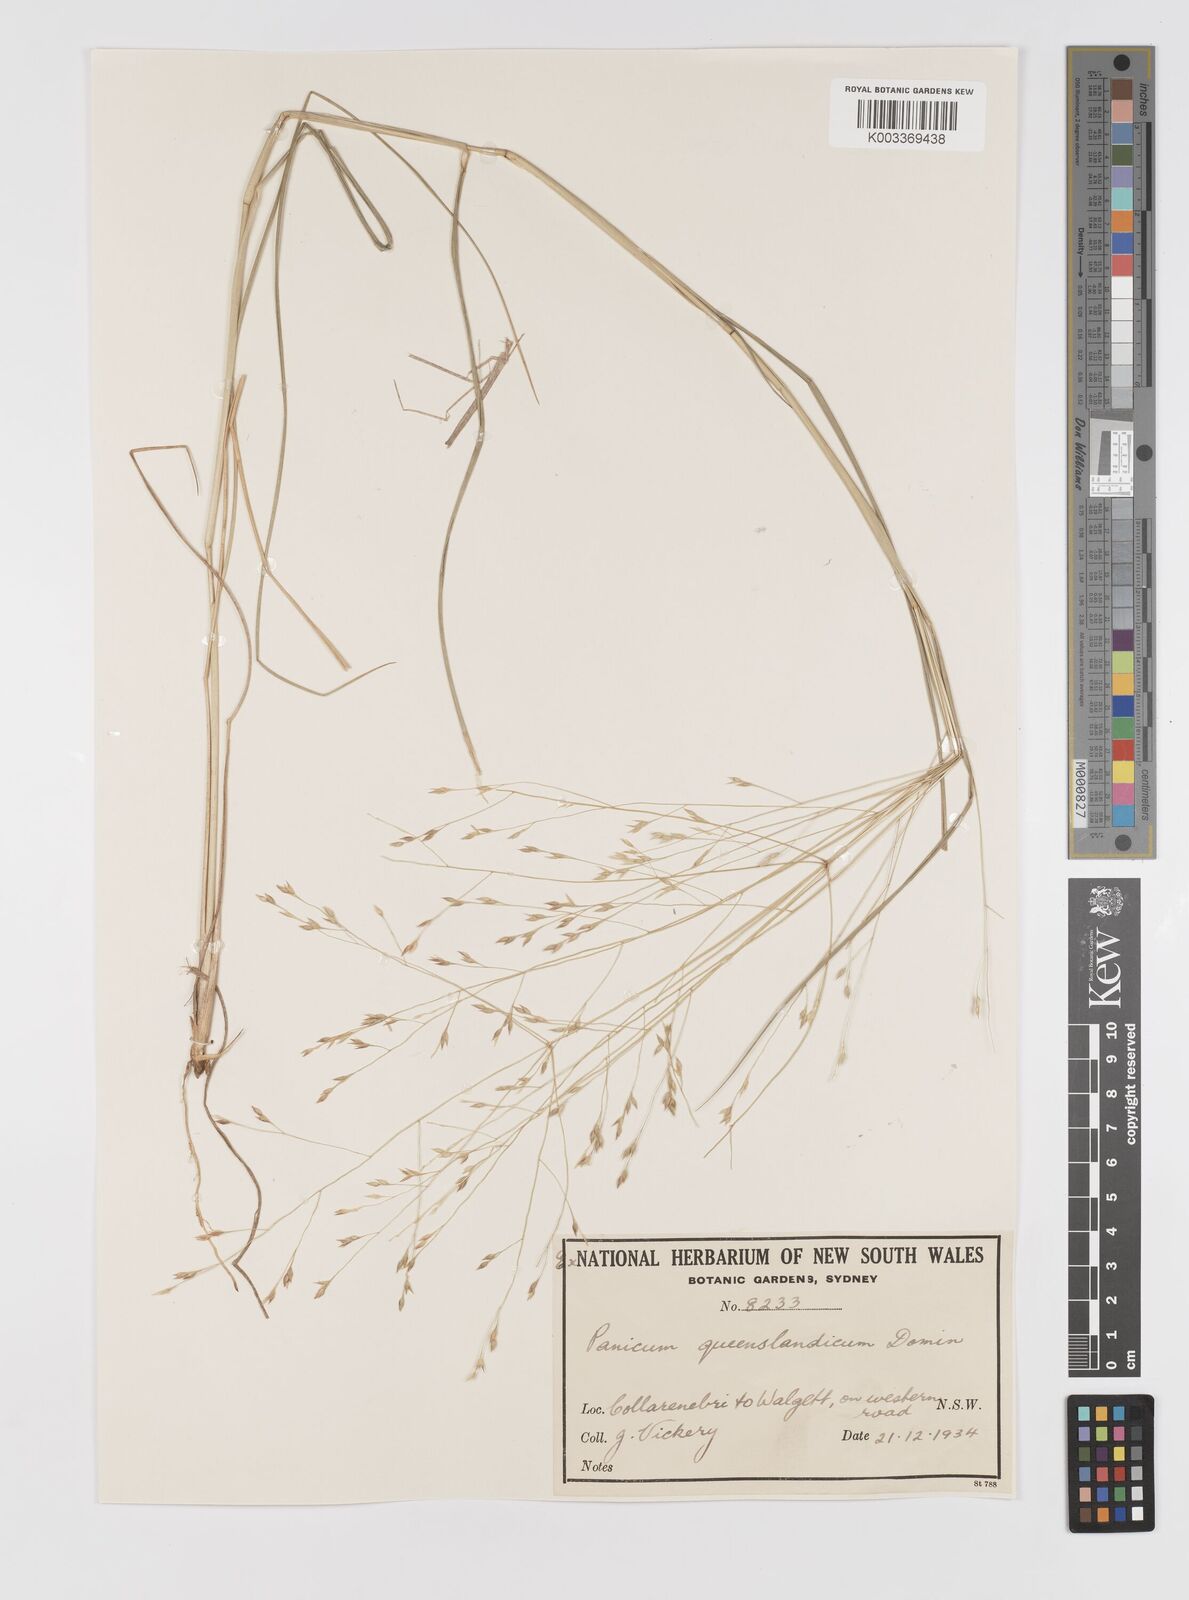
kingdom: Plantae
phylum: Tracheophyta
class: Liliopsida
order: Poales
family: Poaceae
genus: Panicum
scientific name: Panicum queenslandicum
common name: Yabila grass
